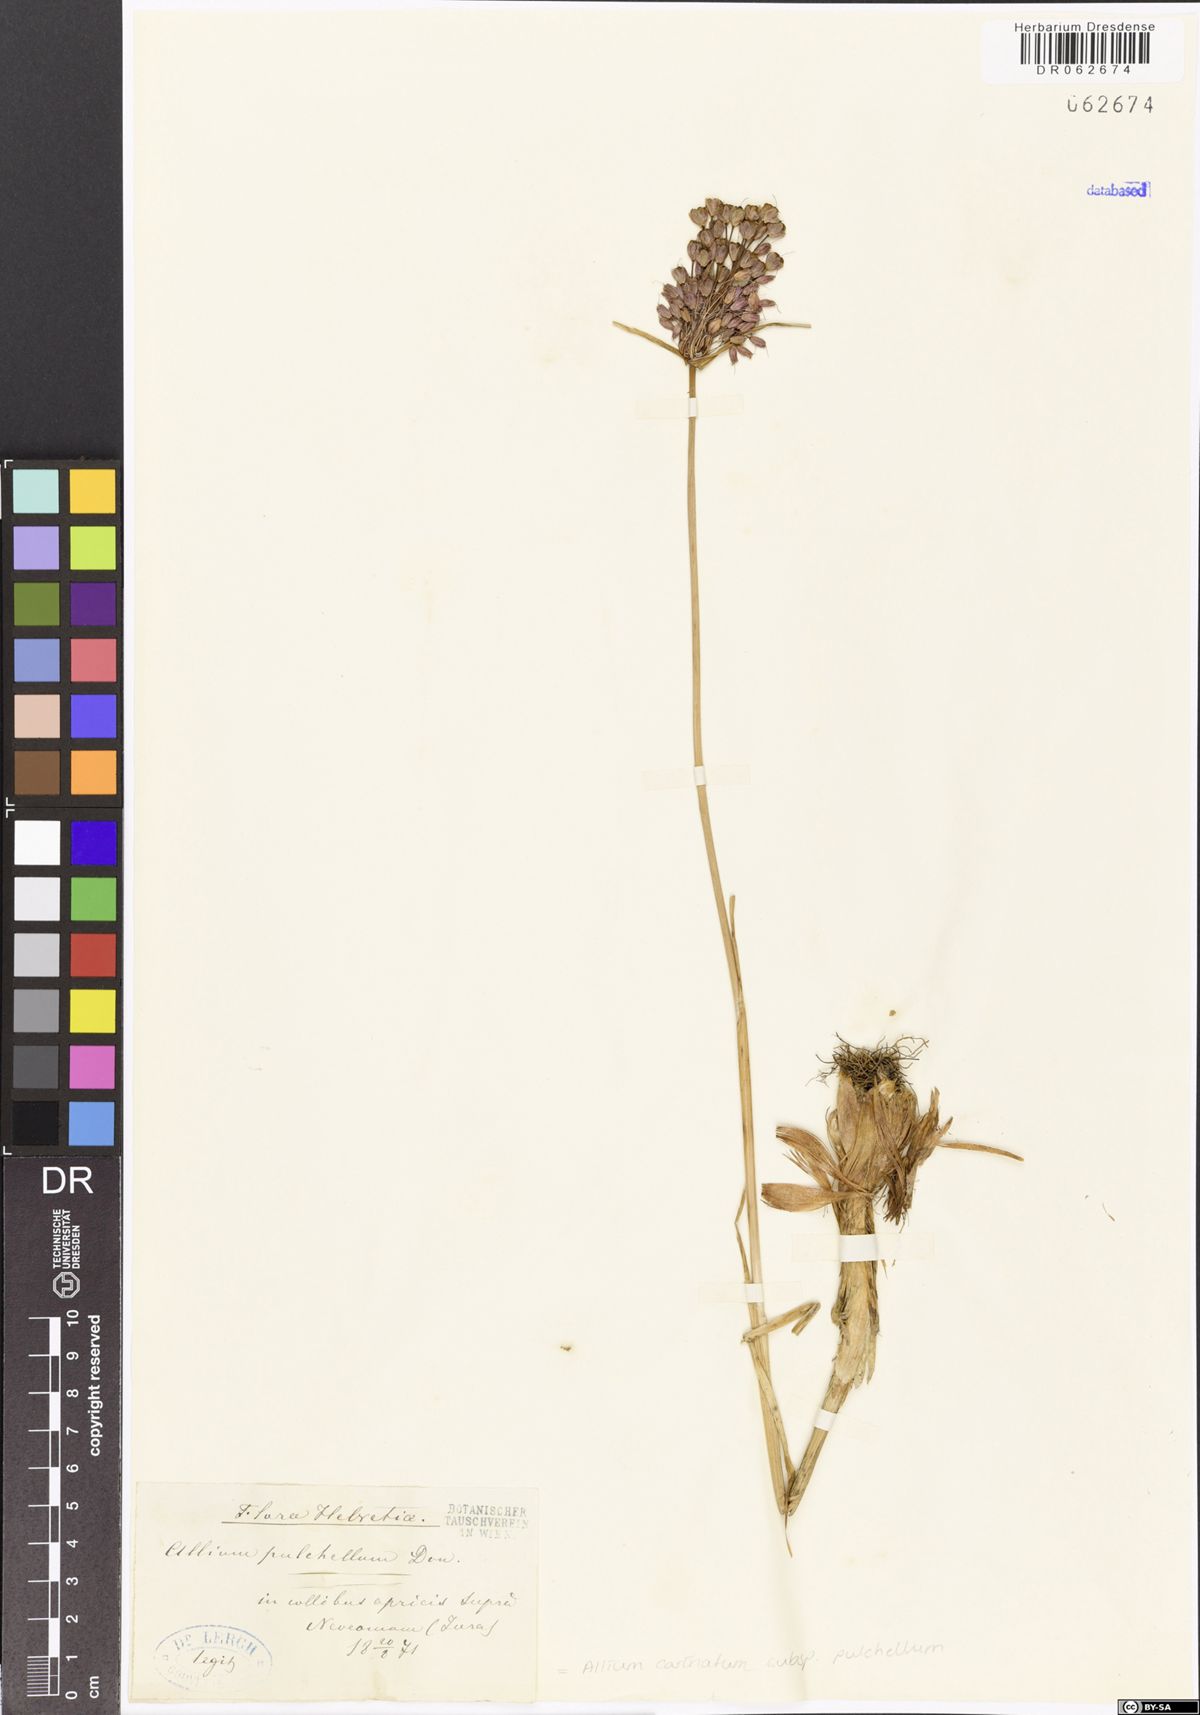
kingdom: Plantae
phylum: Tracheophyta
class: Liliopsida
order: Asparagales
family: Amaryllidaceae
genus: Allium
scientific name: Allium coloratum
